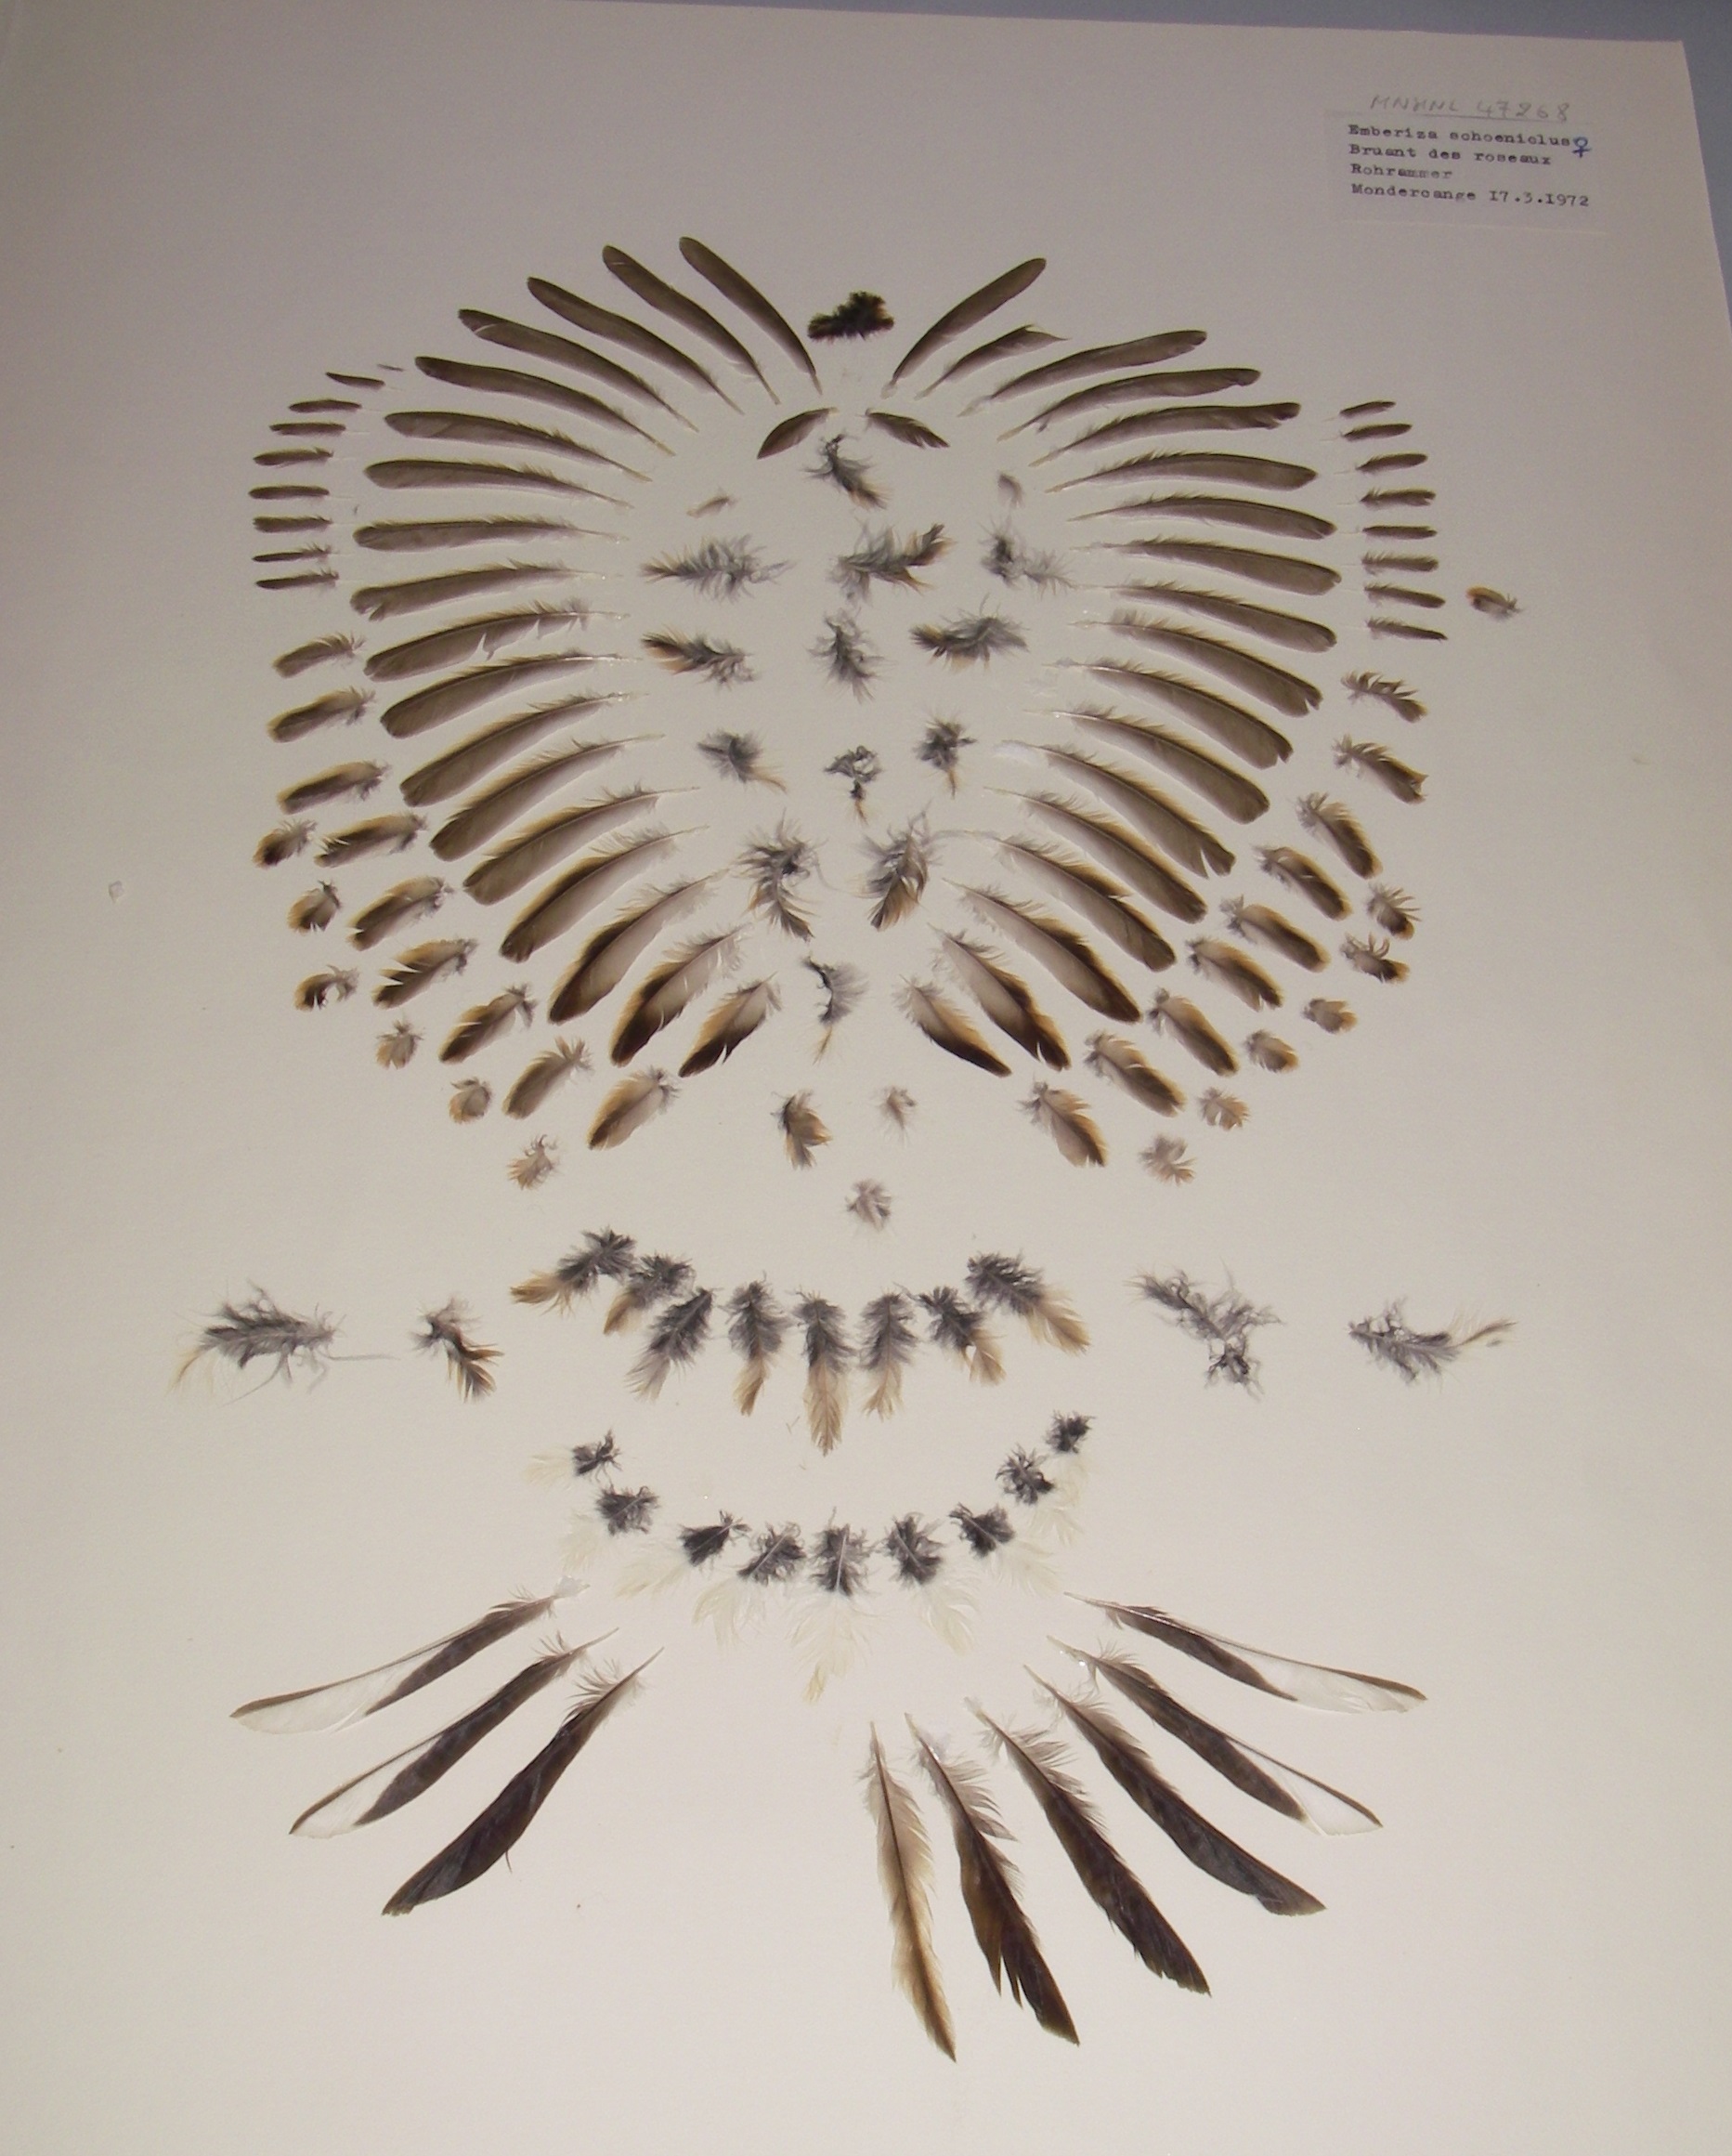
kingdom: Animalia
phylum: Chordata
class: Aves
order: Passeriformes
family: Emberizidae
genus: Emberiza
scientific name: Emberiza schoeniclus
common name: Reed bunting
